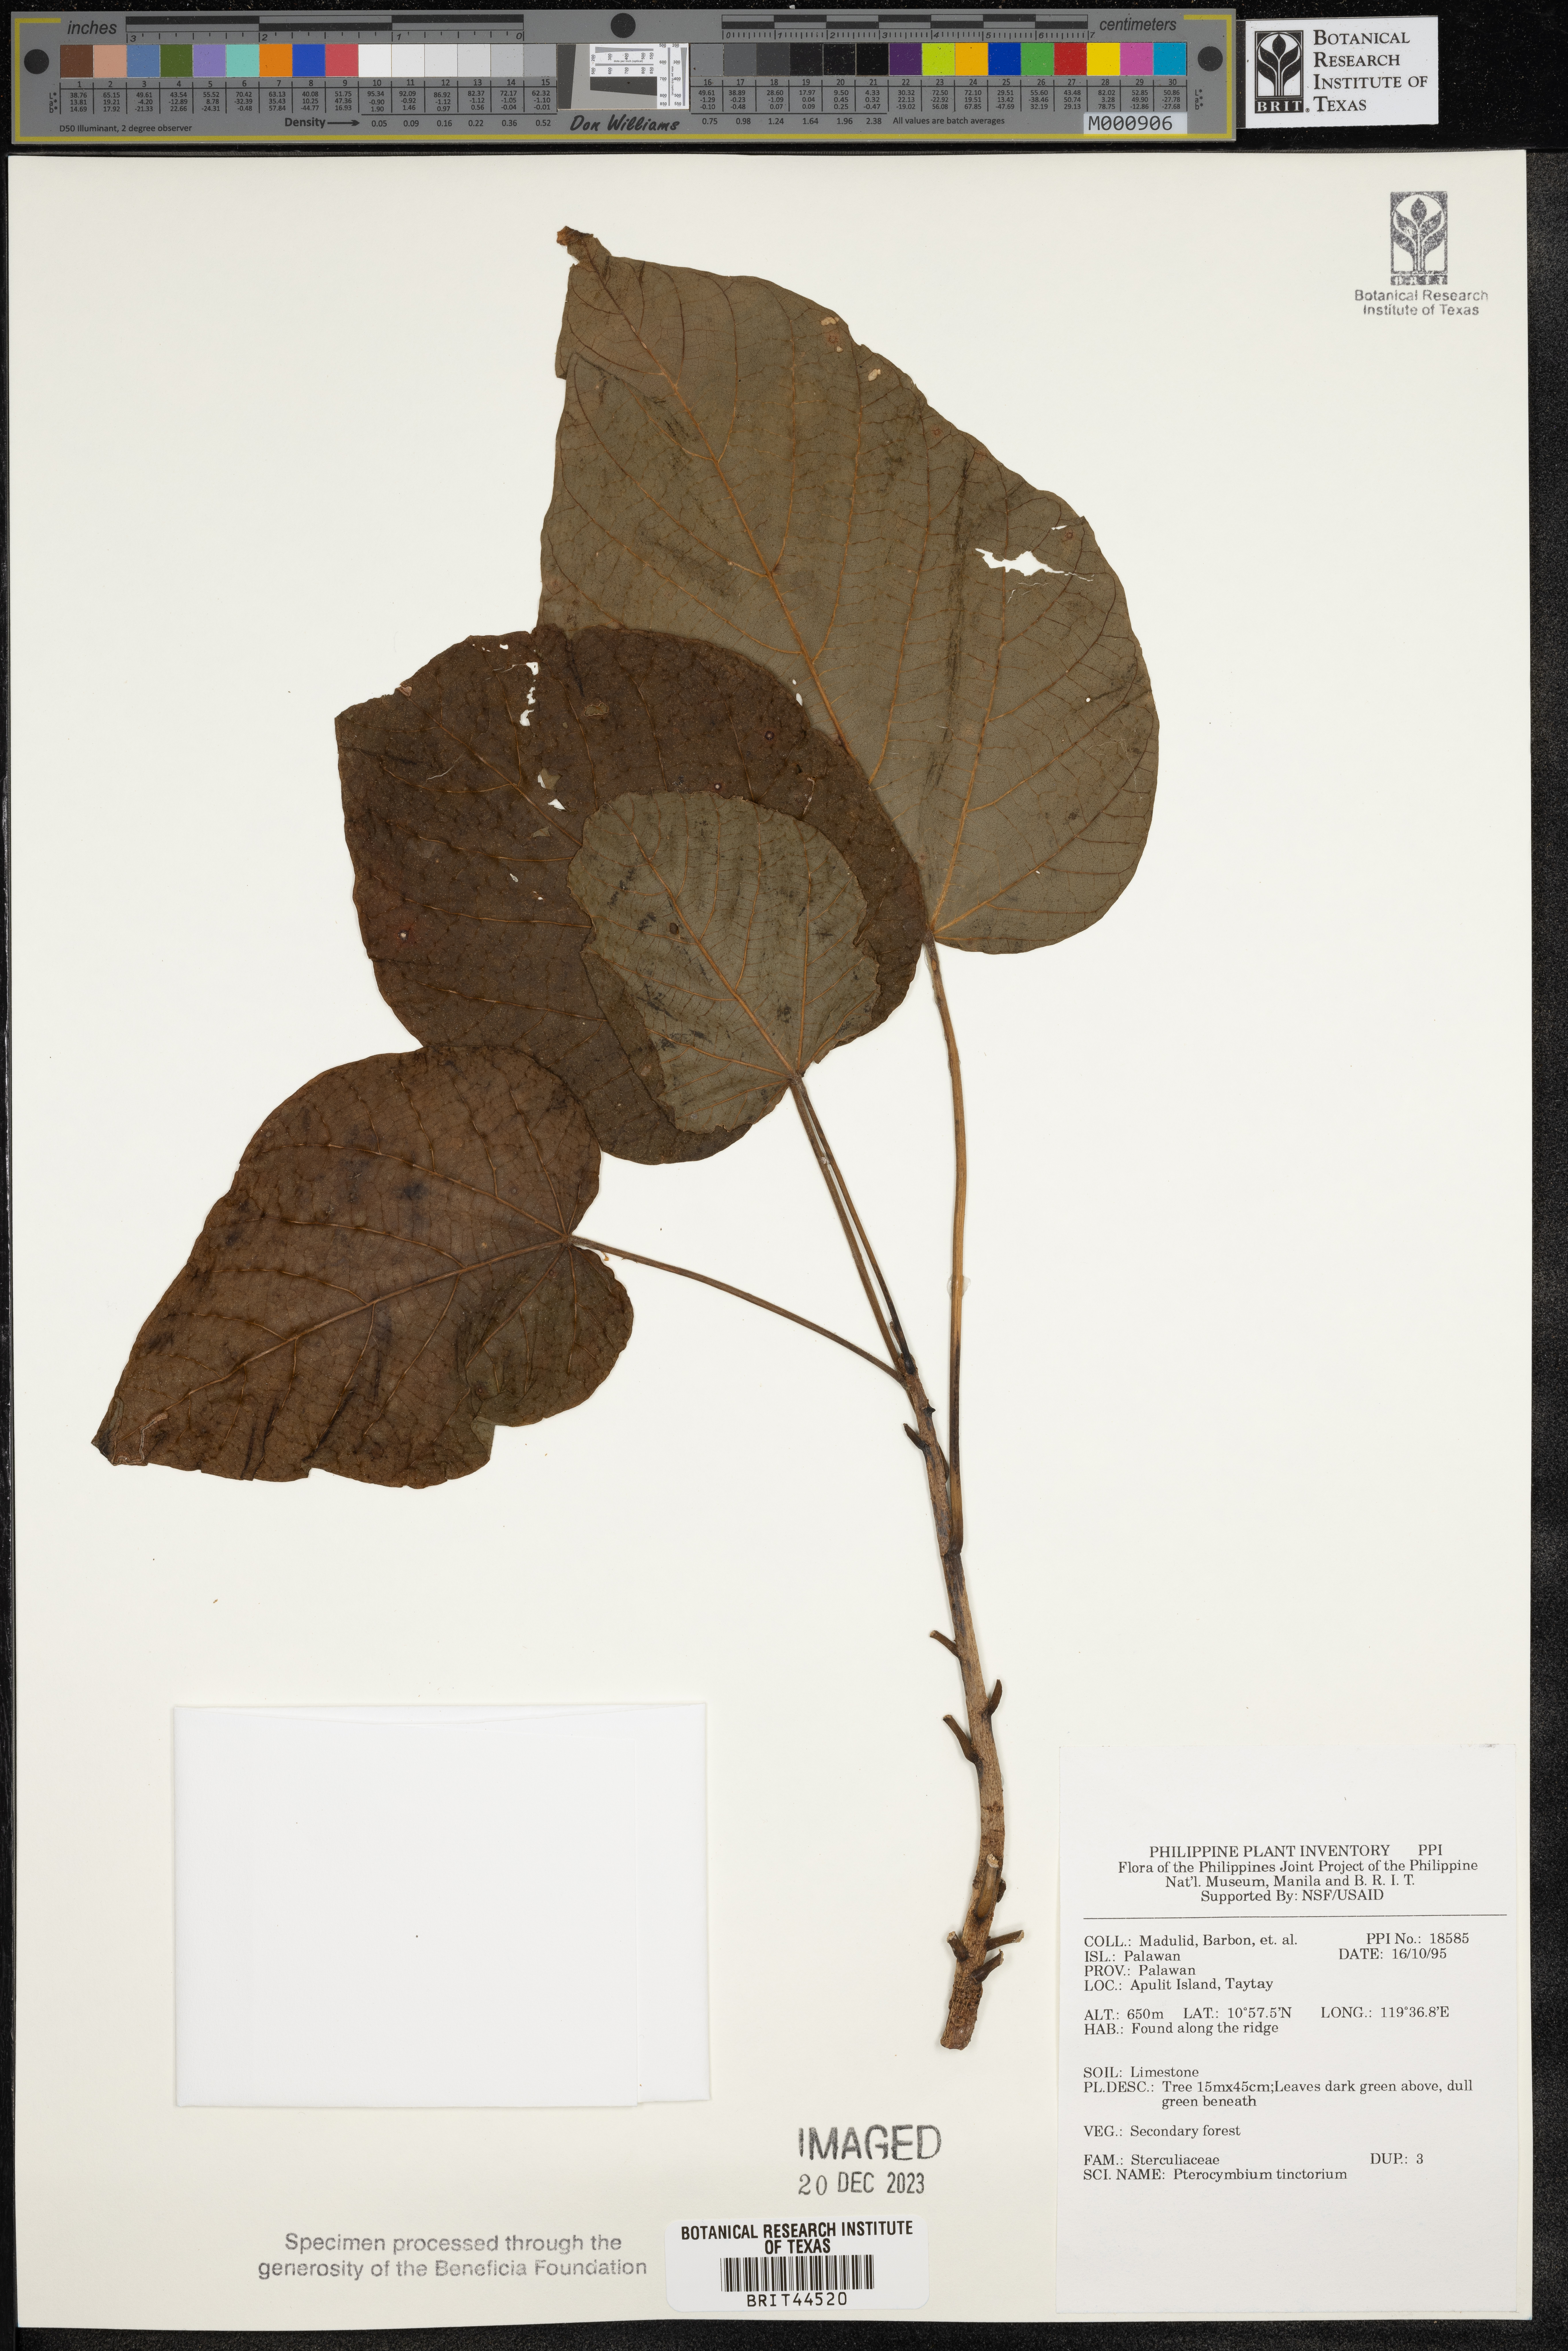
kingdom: Plantae
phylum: Tracheophyta
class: Magnoliopsida
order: Malvales
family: Malvaceae
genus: Pterocymbium
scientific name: Pterocymbium tinctorium
